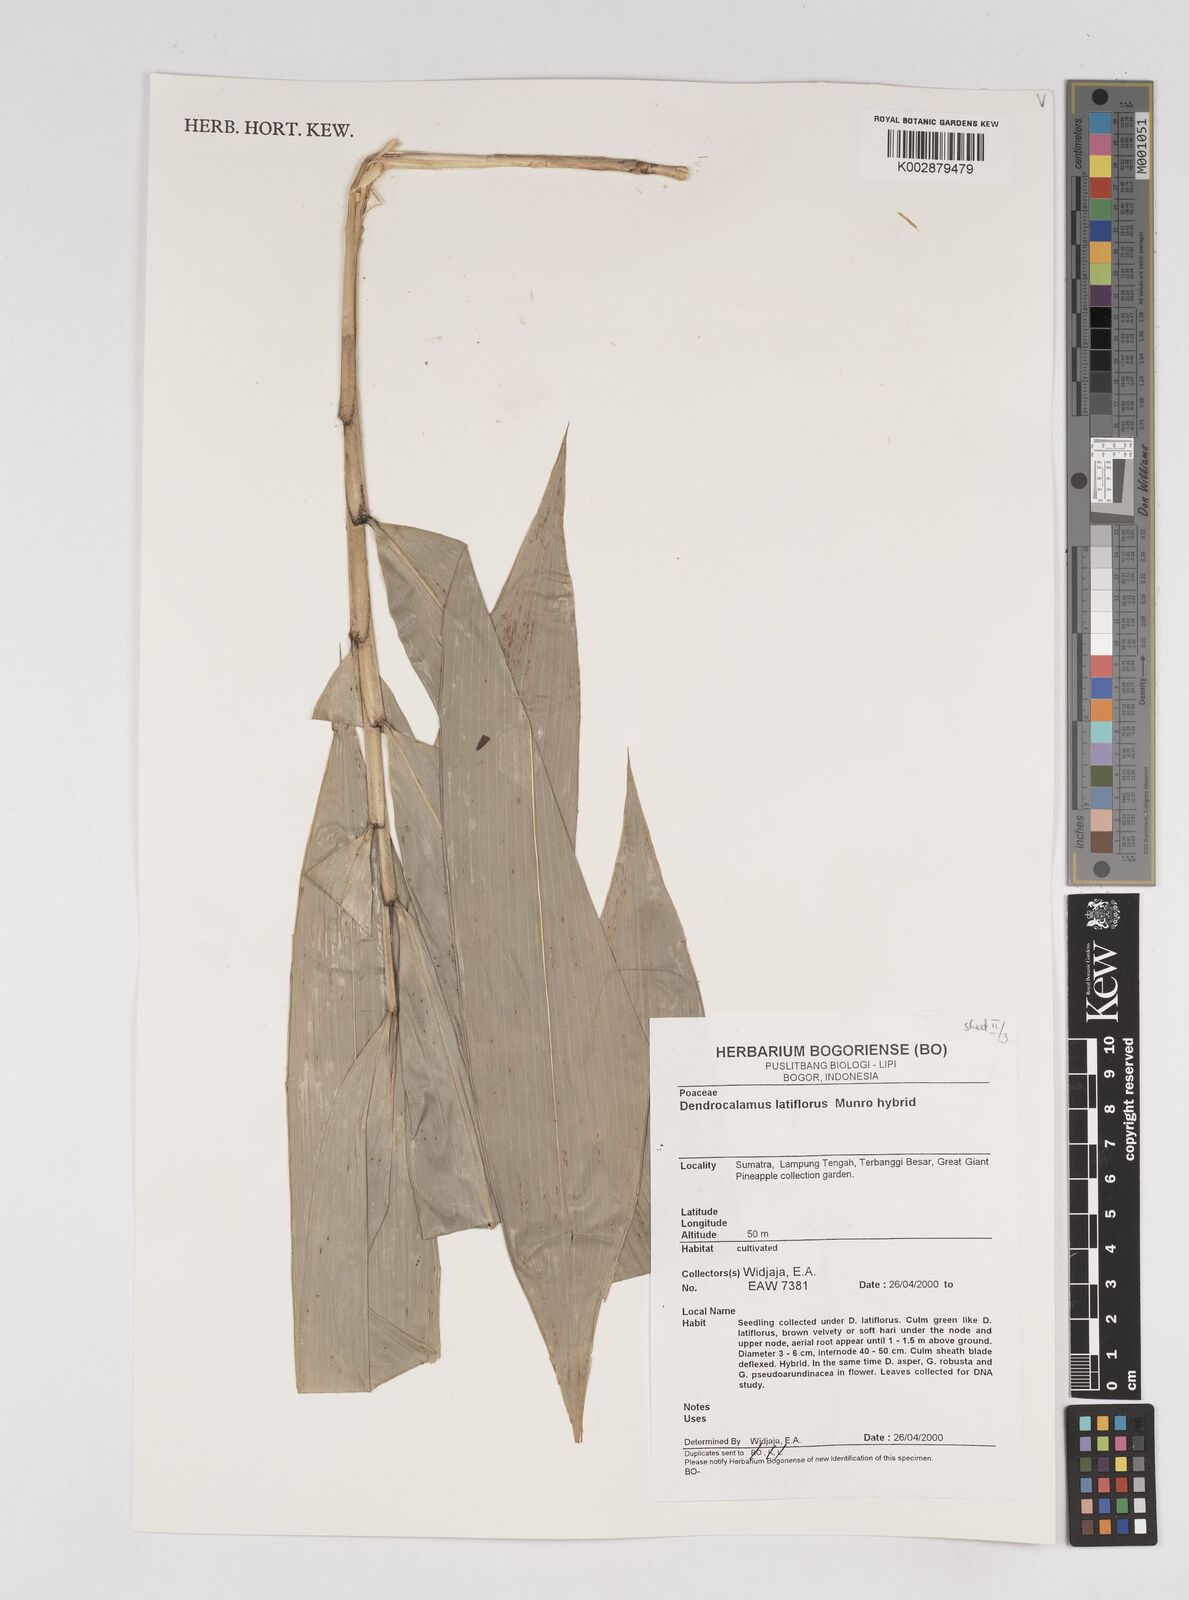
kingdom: Plantae
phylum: Tracheophyta
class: Liliopsida
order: Poales
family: Poaceae
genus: Dendrocalamus
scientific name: Dendrocalamus latiflorus
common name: Giant bamboo
